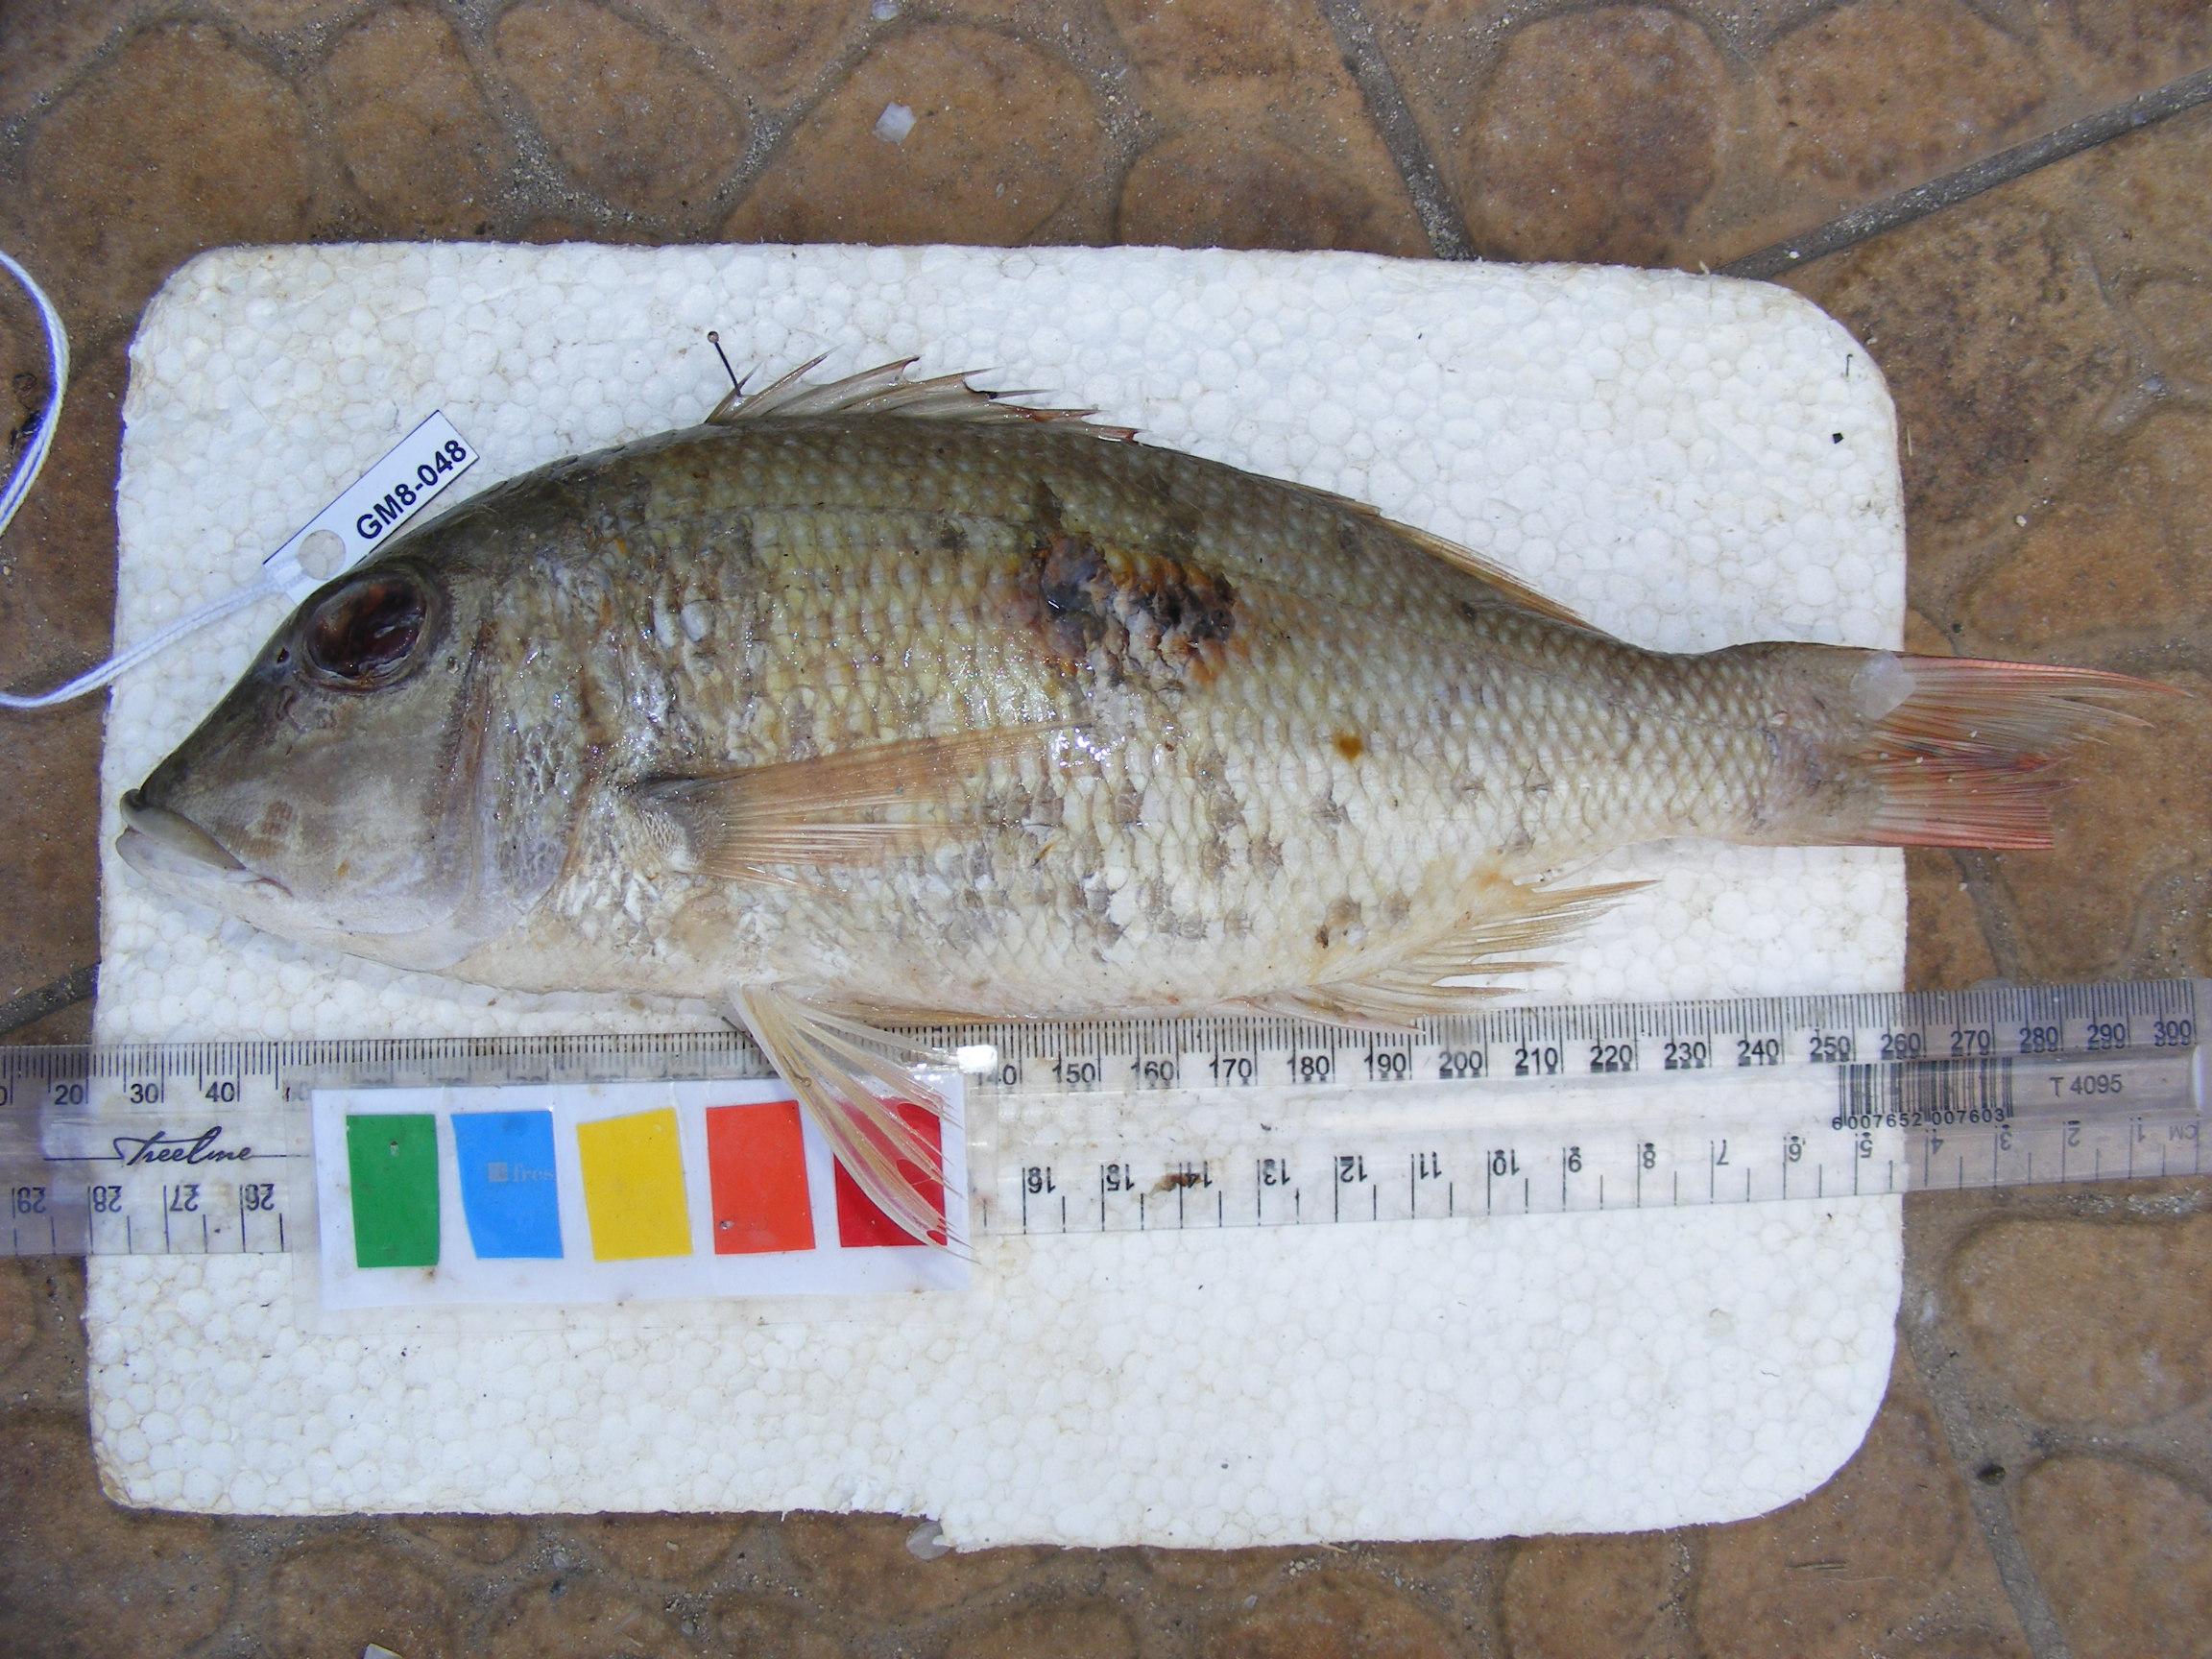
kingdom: Animalia
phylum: Chordata
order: Perciformes
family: Lethrinidae
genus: Lethrinus
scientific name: Lethrinus harak
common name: Blackspot emperor
